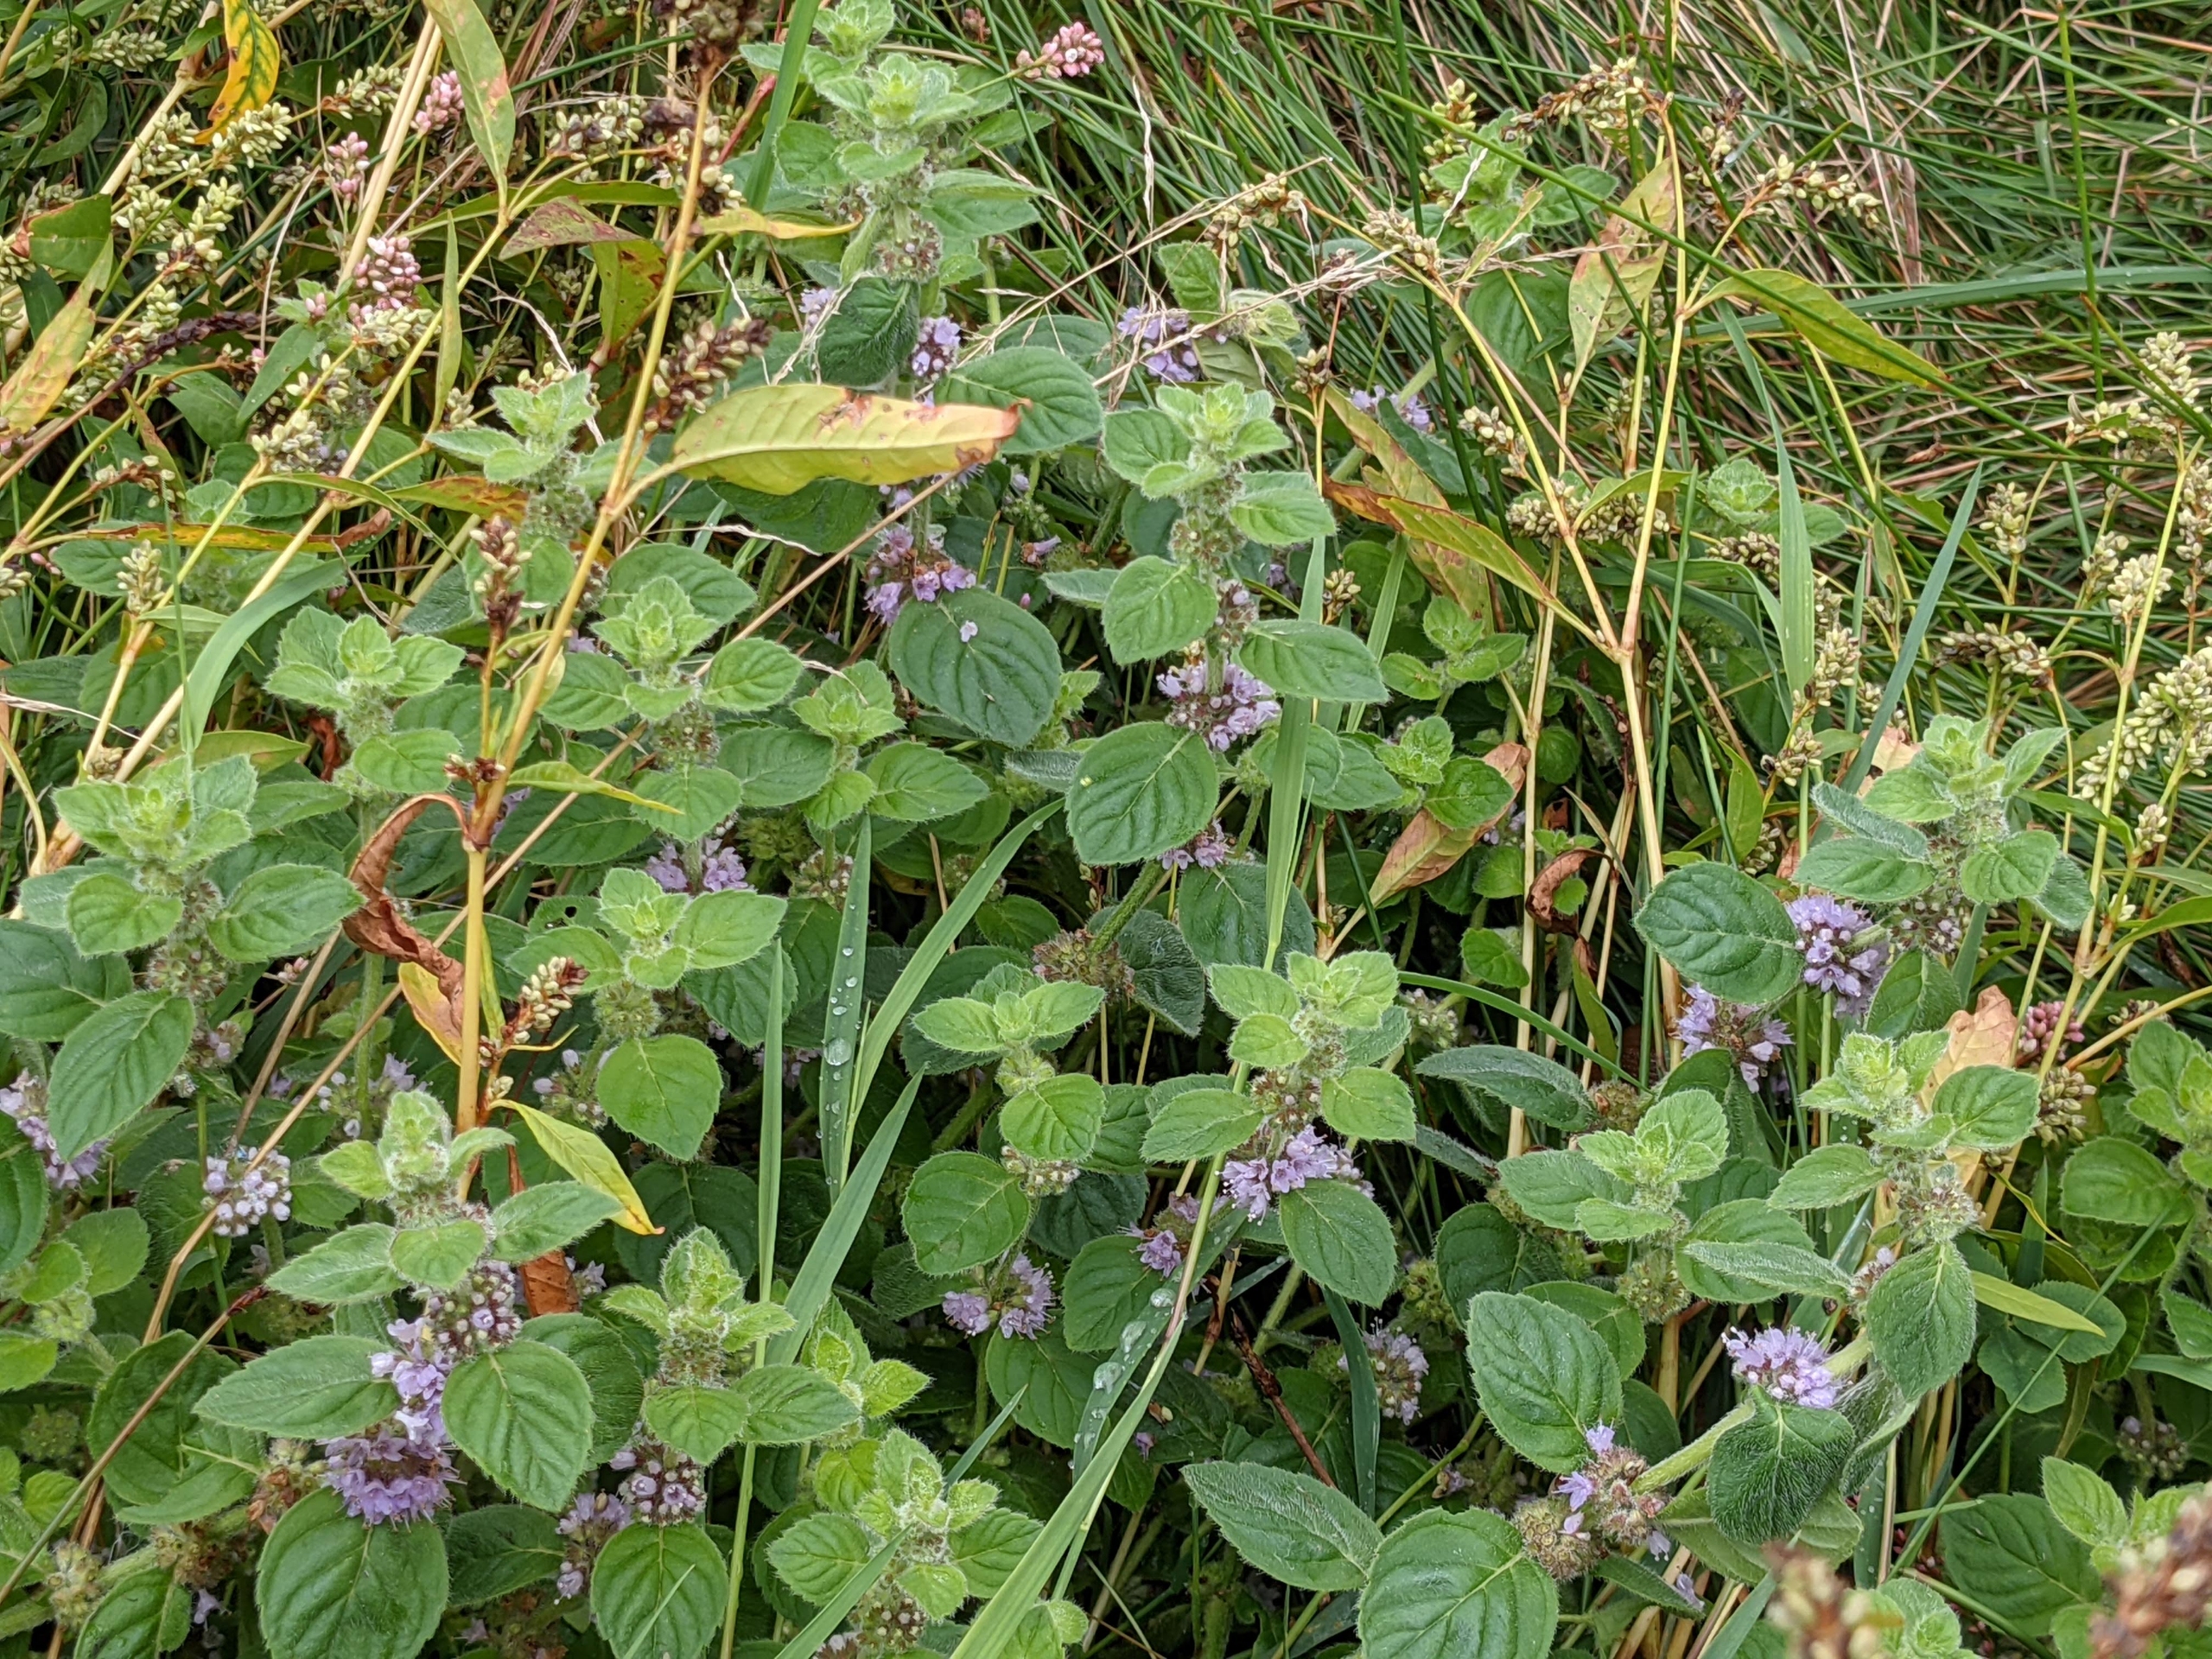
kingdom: Plantae
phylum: Tracheophyta
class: Magnoliopsida
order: Lamiales
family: Lamiaceae
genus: Mentha
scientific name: Mentha verticillata
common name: Krans-mynte
